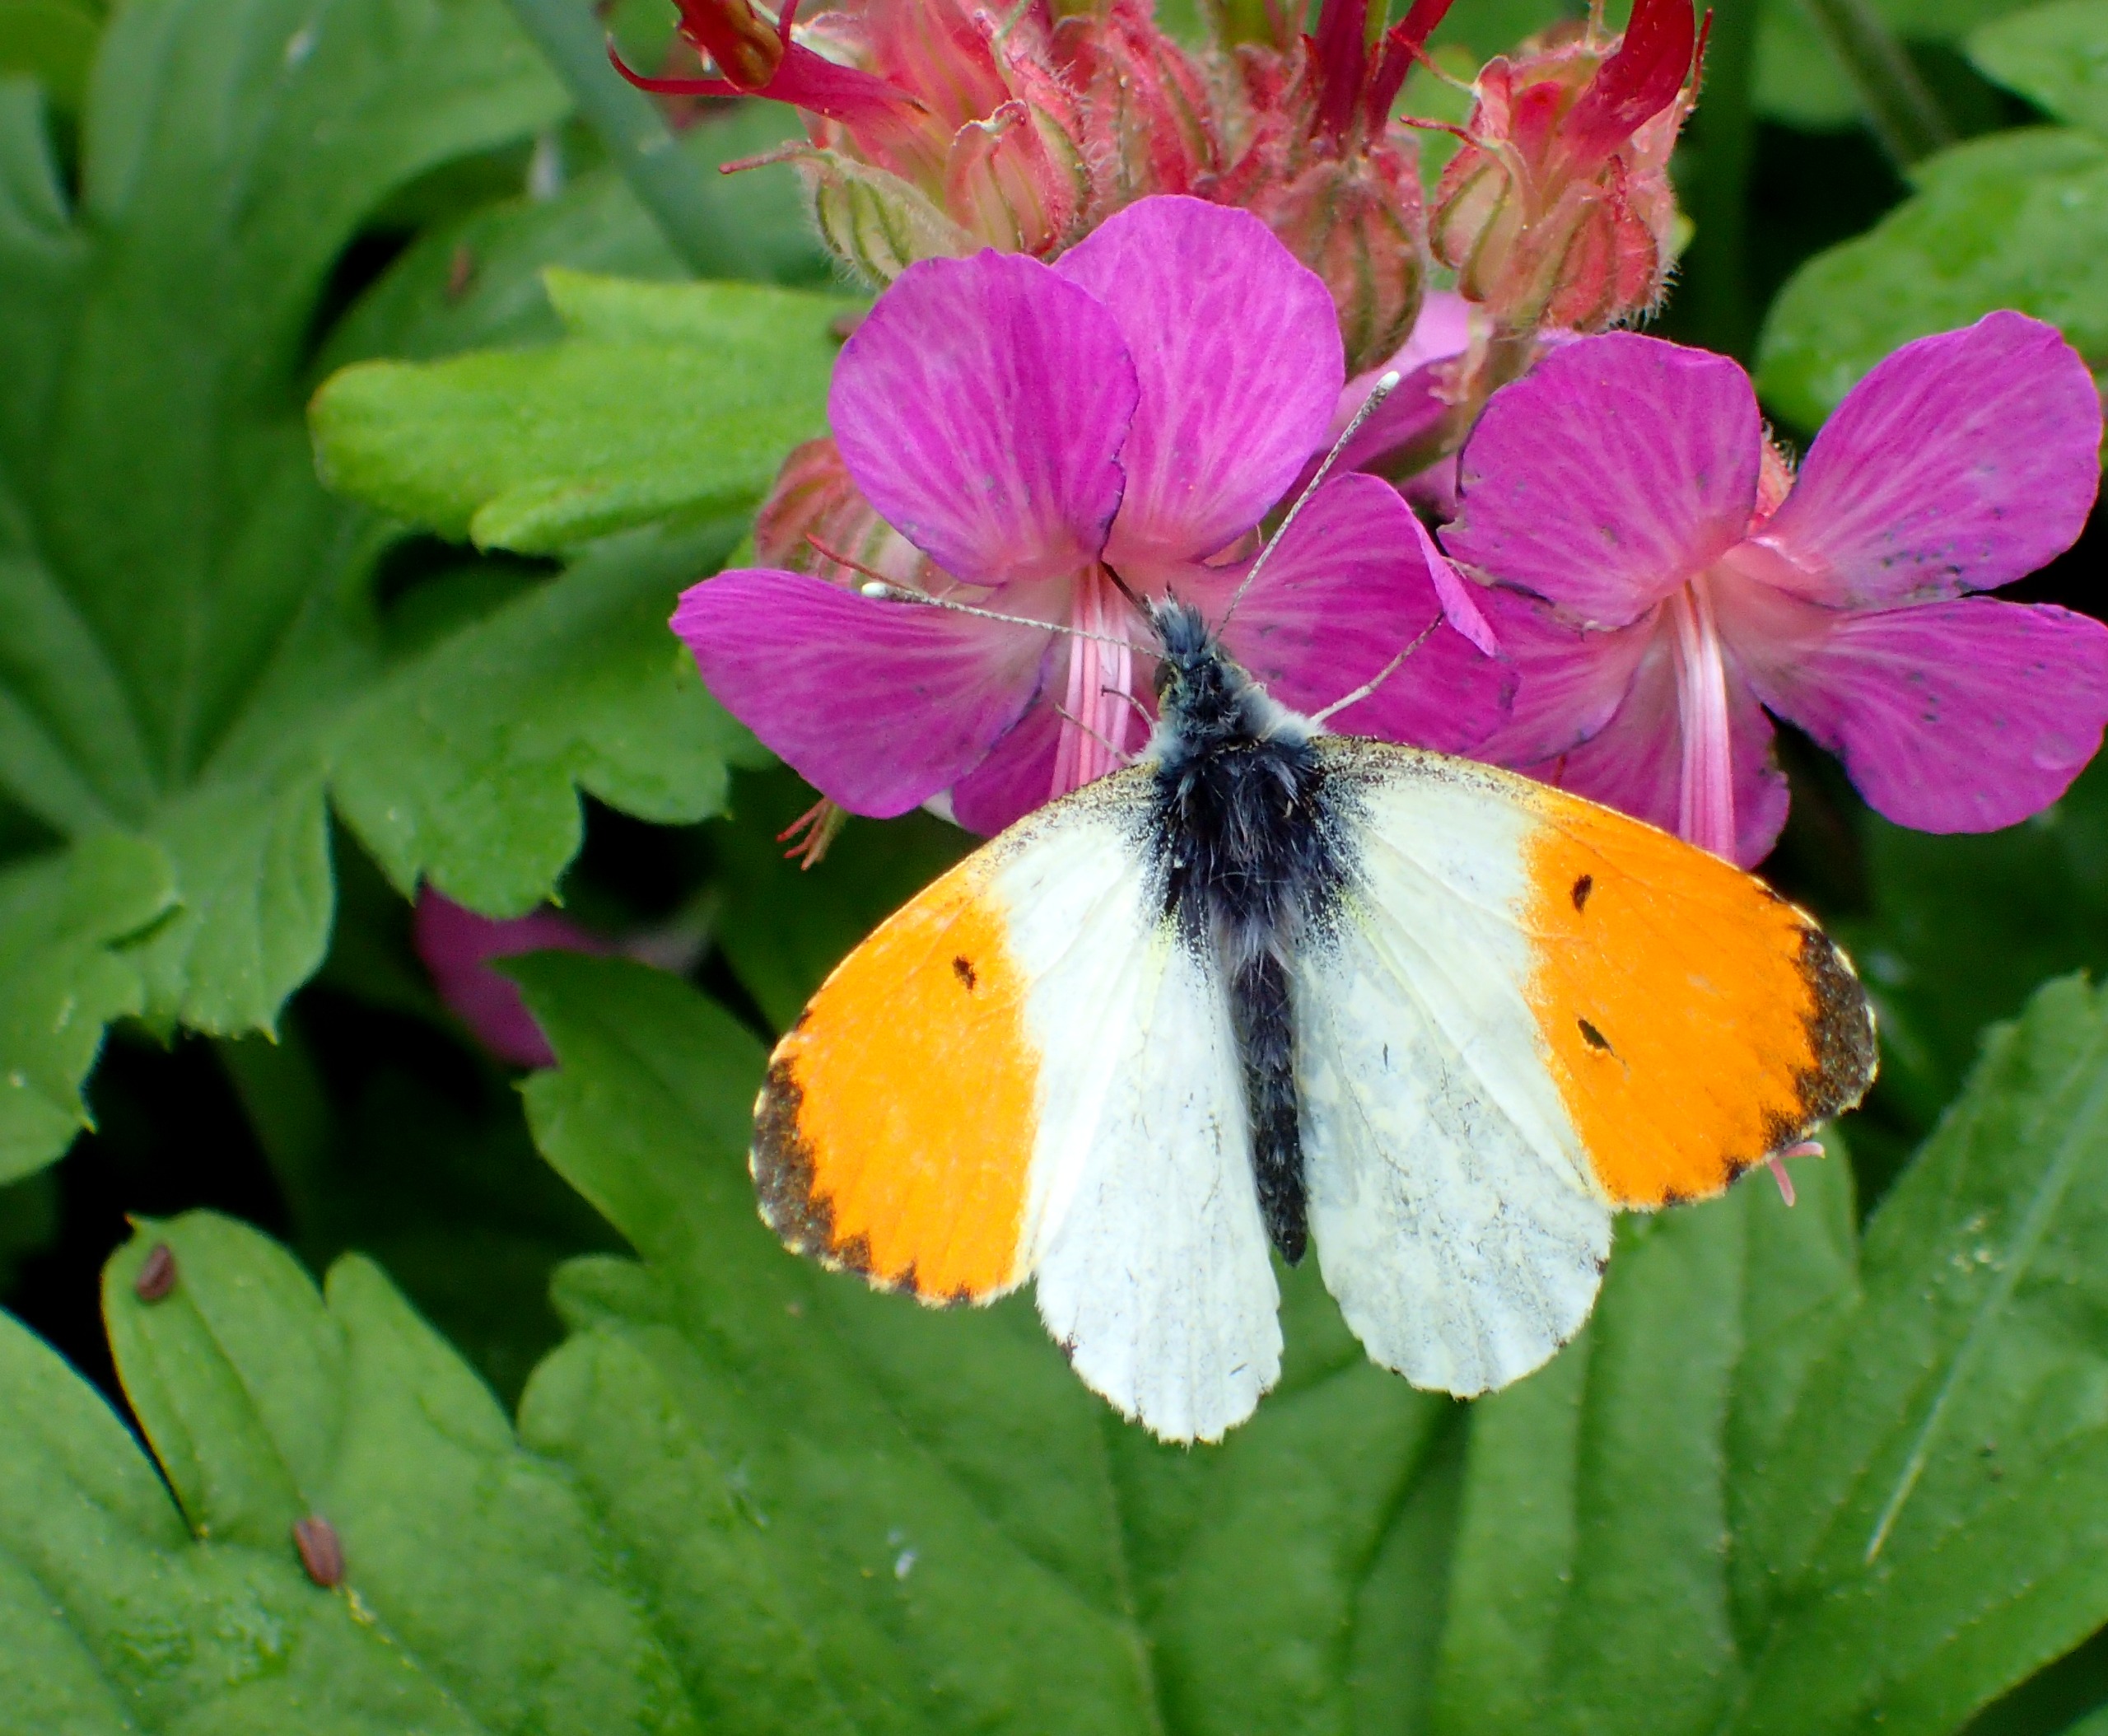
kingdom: Animalia
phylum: Arthropoda
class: Insecta
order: Lepidoptera
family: Pieridae
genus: Anthocharis
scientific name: Anthocharis cardamines
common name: Aurora
